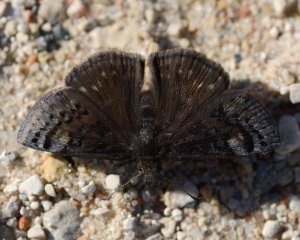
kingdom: Animalia
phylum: Arthropoda
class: Insecta
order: Lepidoptera
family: Hesperiidae
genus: Erynnis
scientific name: Erynnis icelus
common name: Dreamy Duskywing
